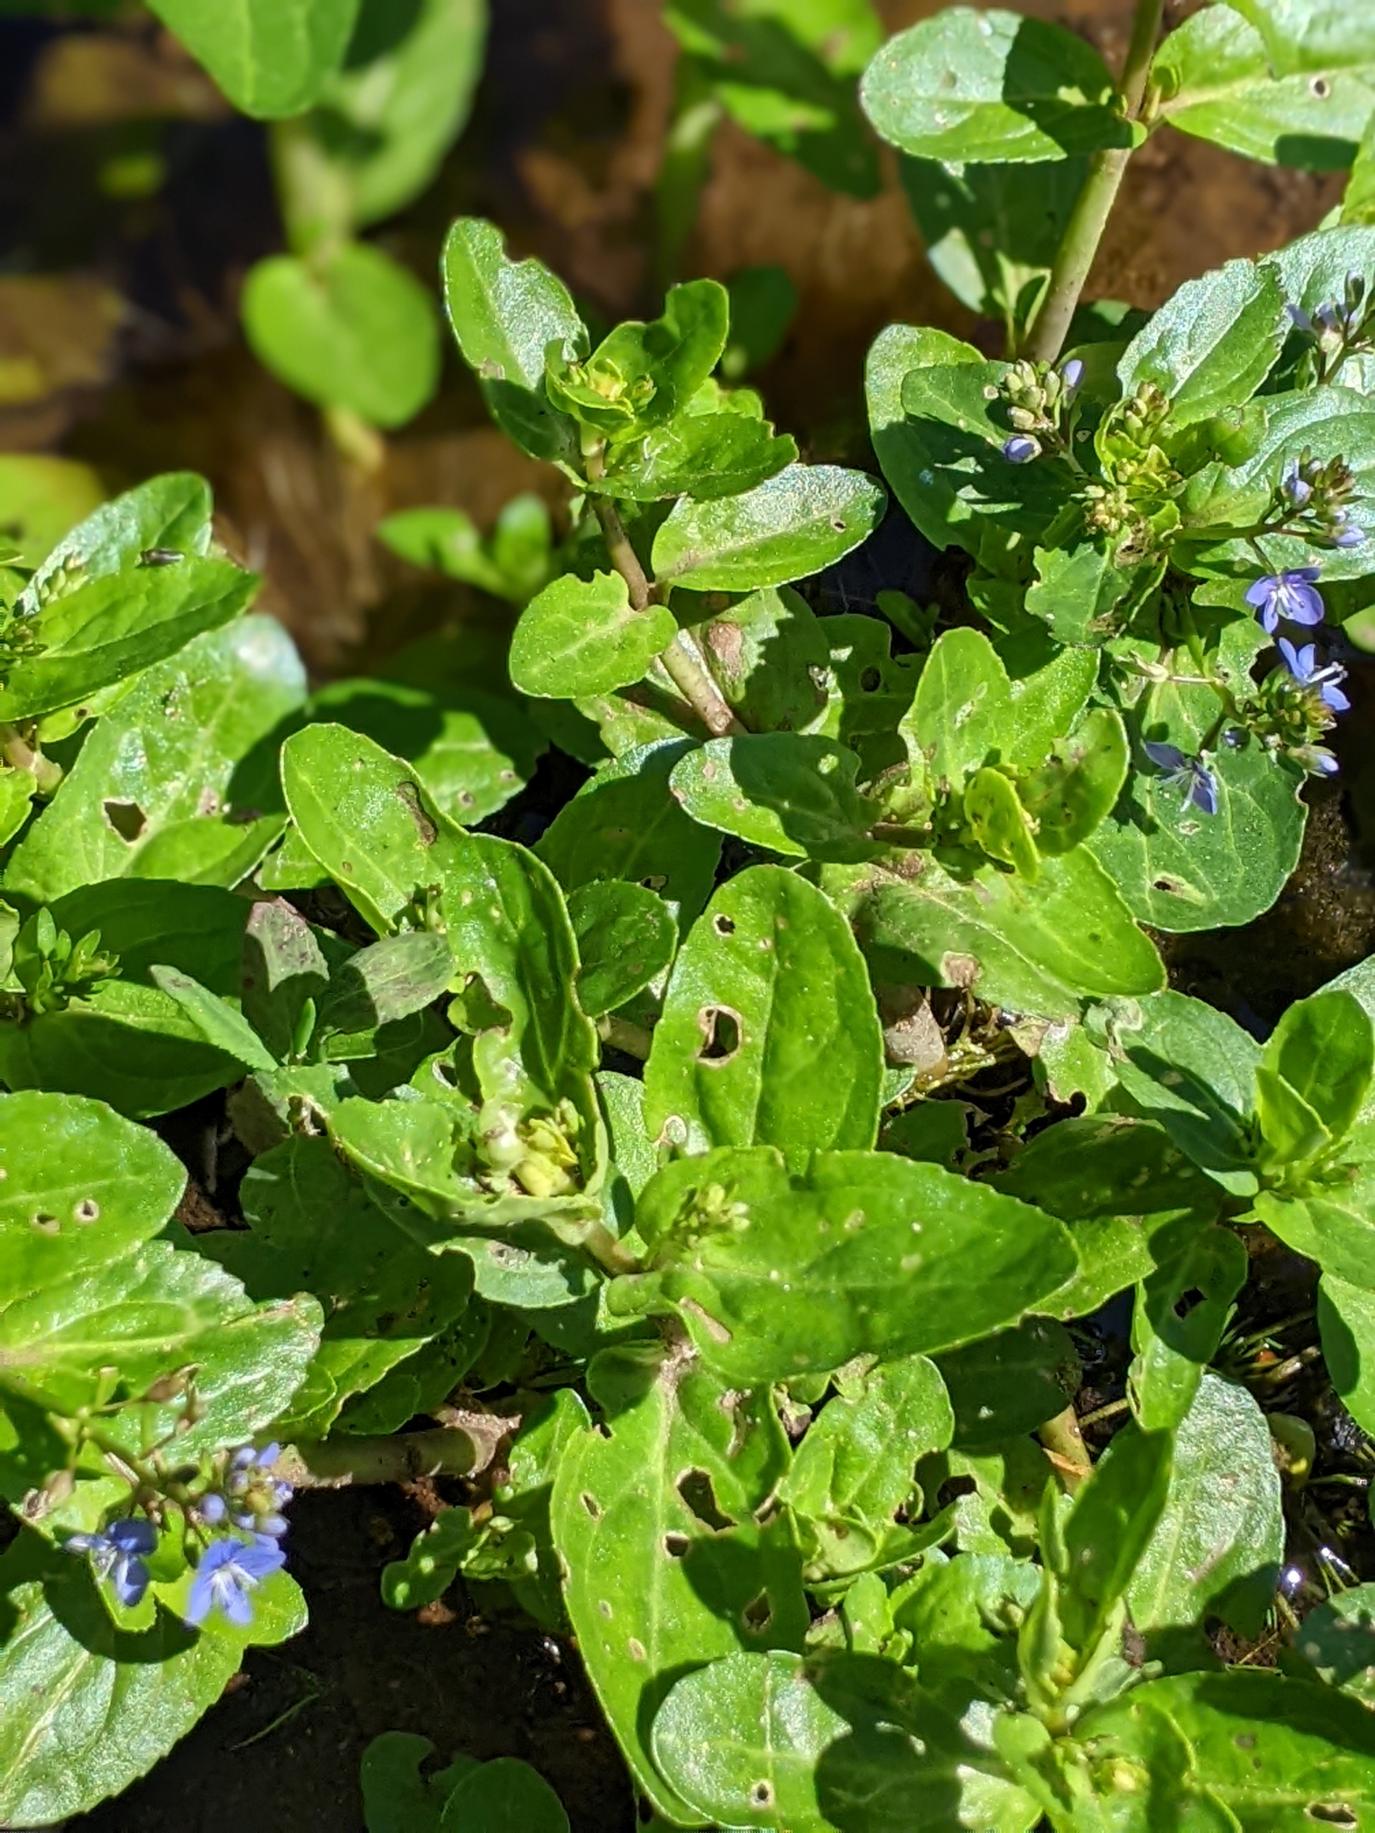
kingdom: Plantae
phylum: Tracheophyta
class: Magnoliopsida
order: Lamiales
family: Plantaginaceae
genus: Veronica
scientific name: Veronica beccabunga
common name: Tykbladet ærenpris
